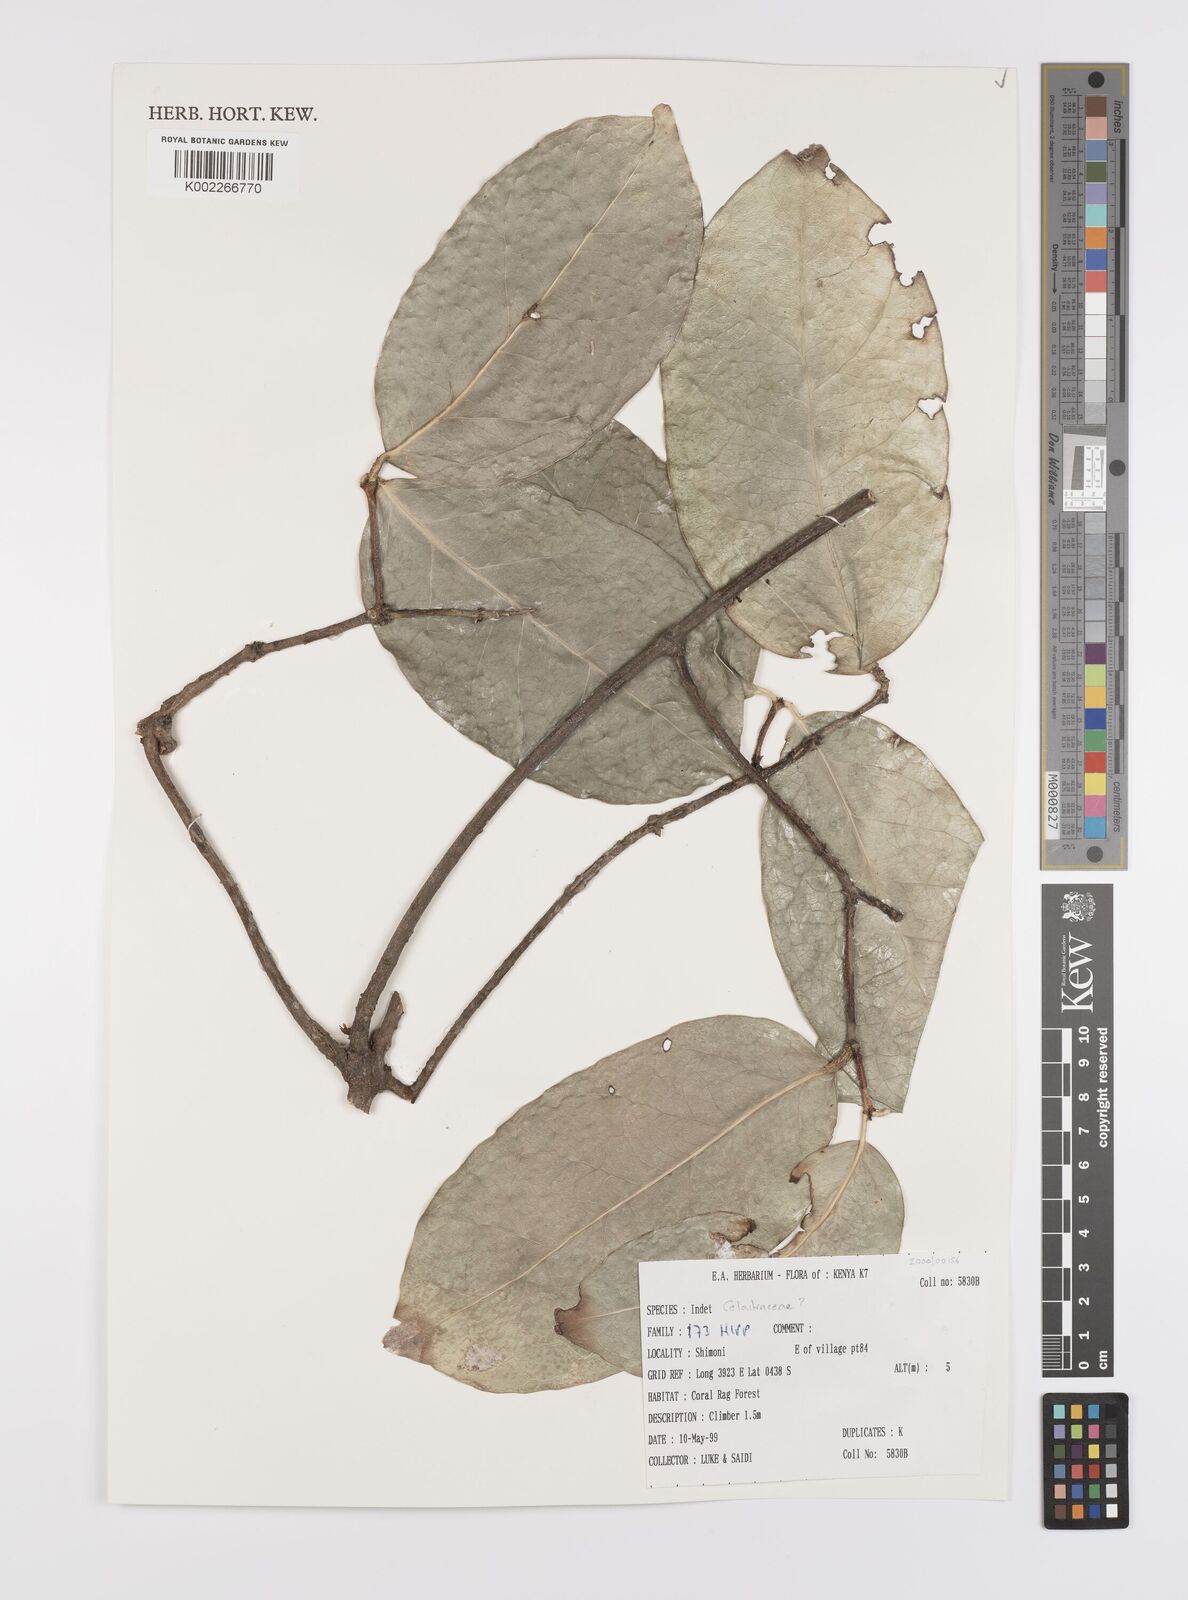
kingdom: Plantae
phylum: Tracheophyta
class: Magnoliopsida
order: Celastrales
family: Celastraceae
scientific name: Celastraceae
